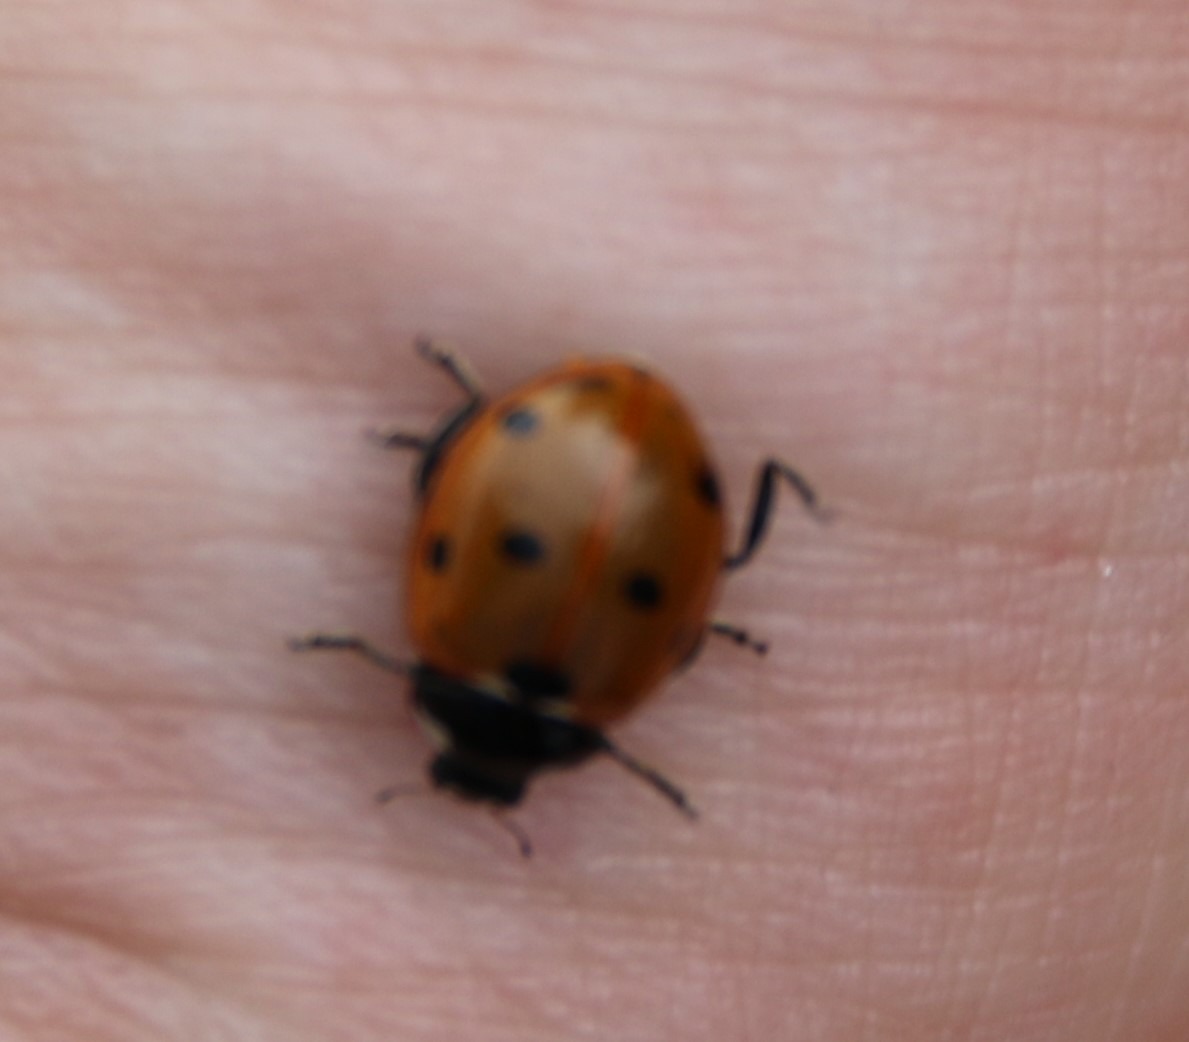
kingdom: Animalia
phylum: Arthropoda
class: Insecta
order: Coleoptera
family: Coccinellidae
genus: Coccinella
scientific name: Coccinella septempunctata
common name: Syvplettet mariehøne
